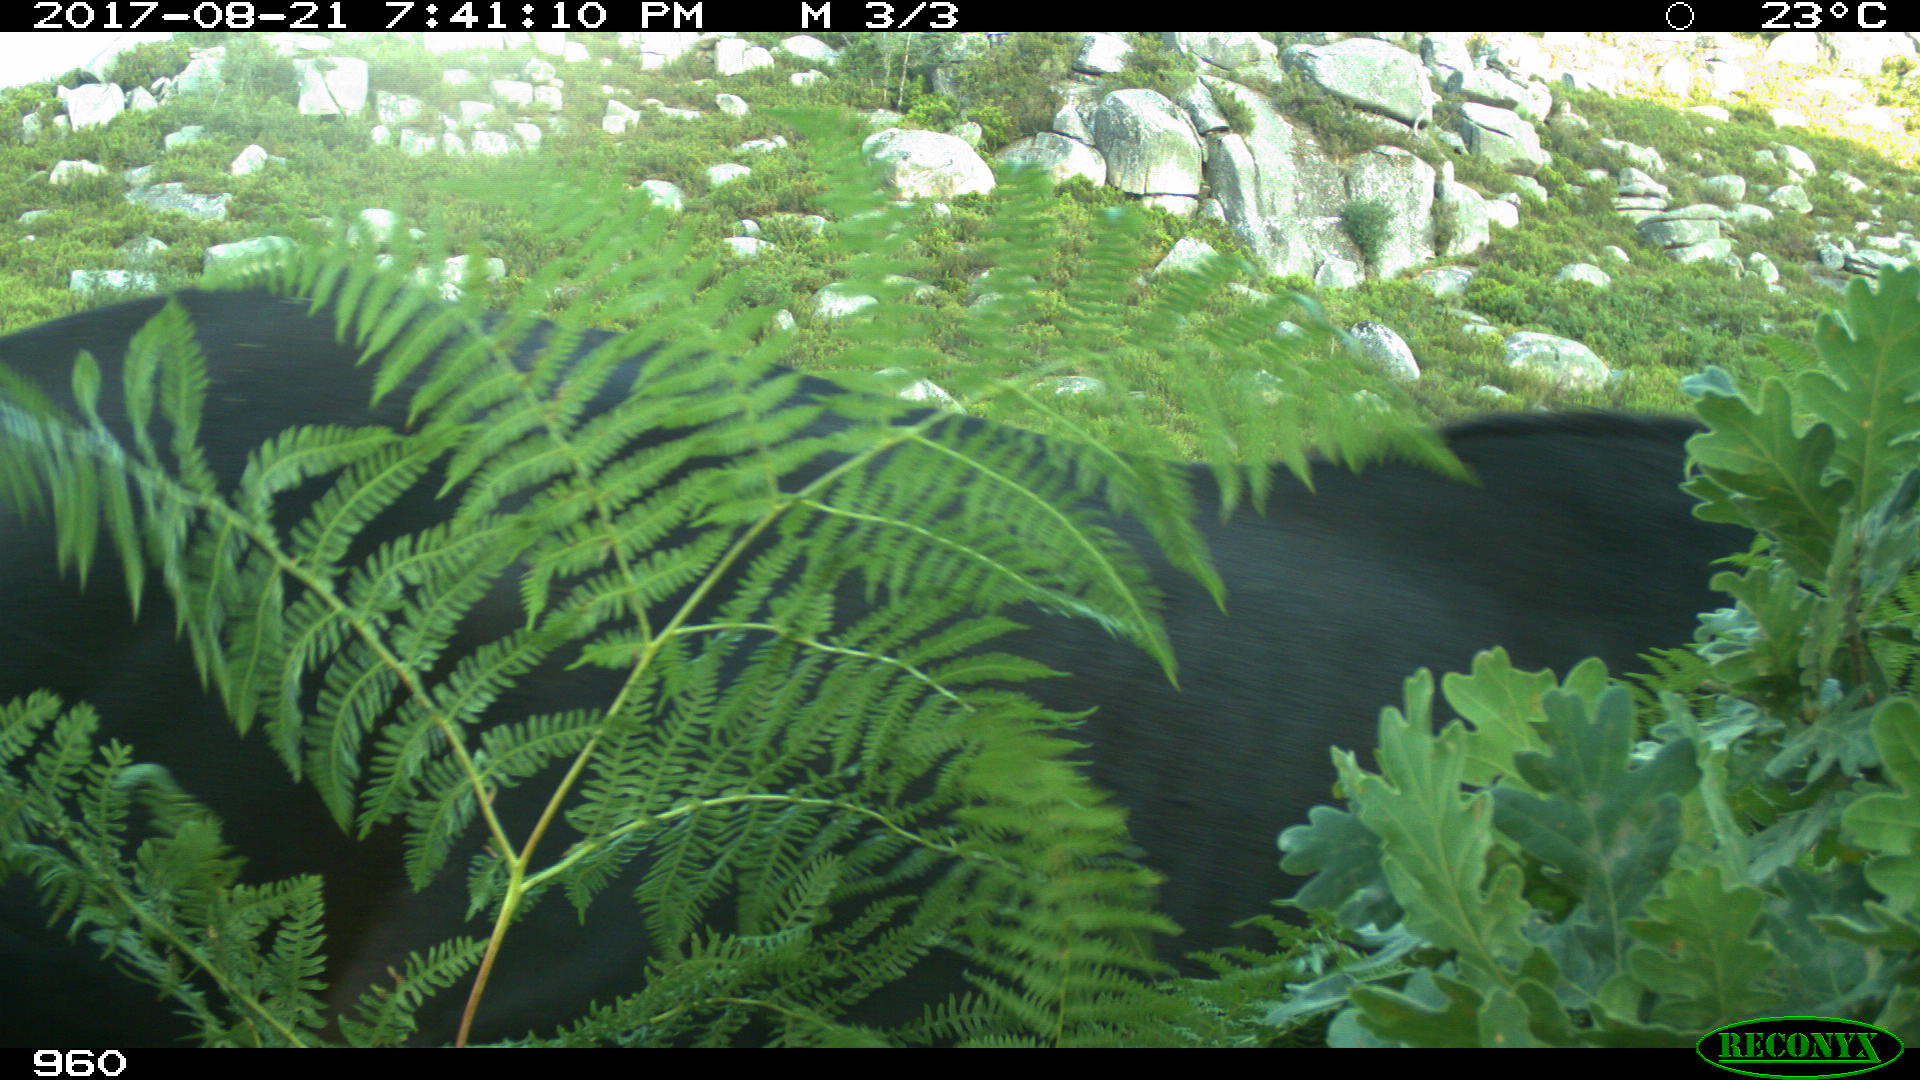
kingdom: Animalia
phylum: Chordata
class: Mammalia
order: Perissodactyla
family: Equidae
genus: Equus
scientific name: Equus caballus
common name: Horse
